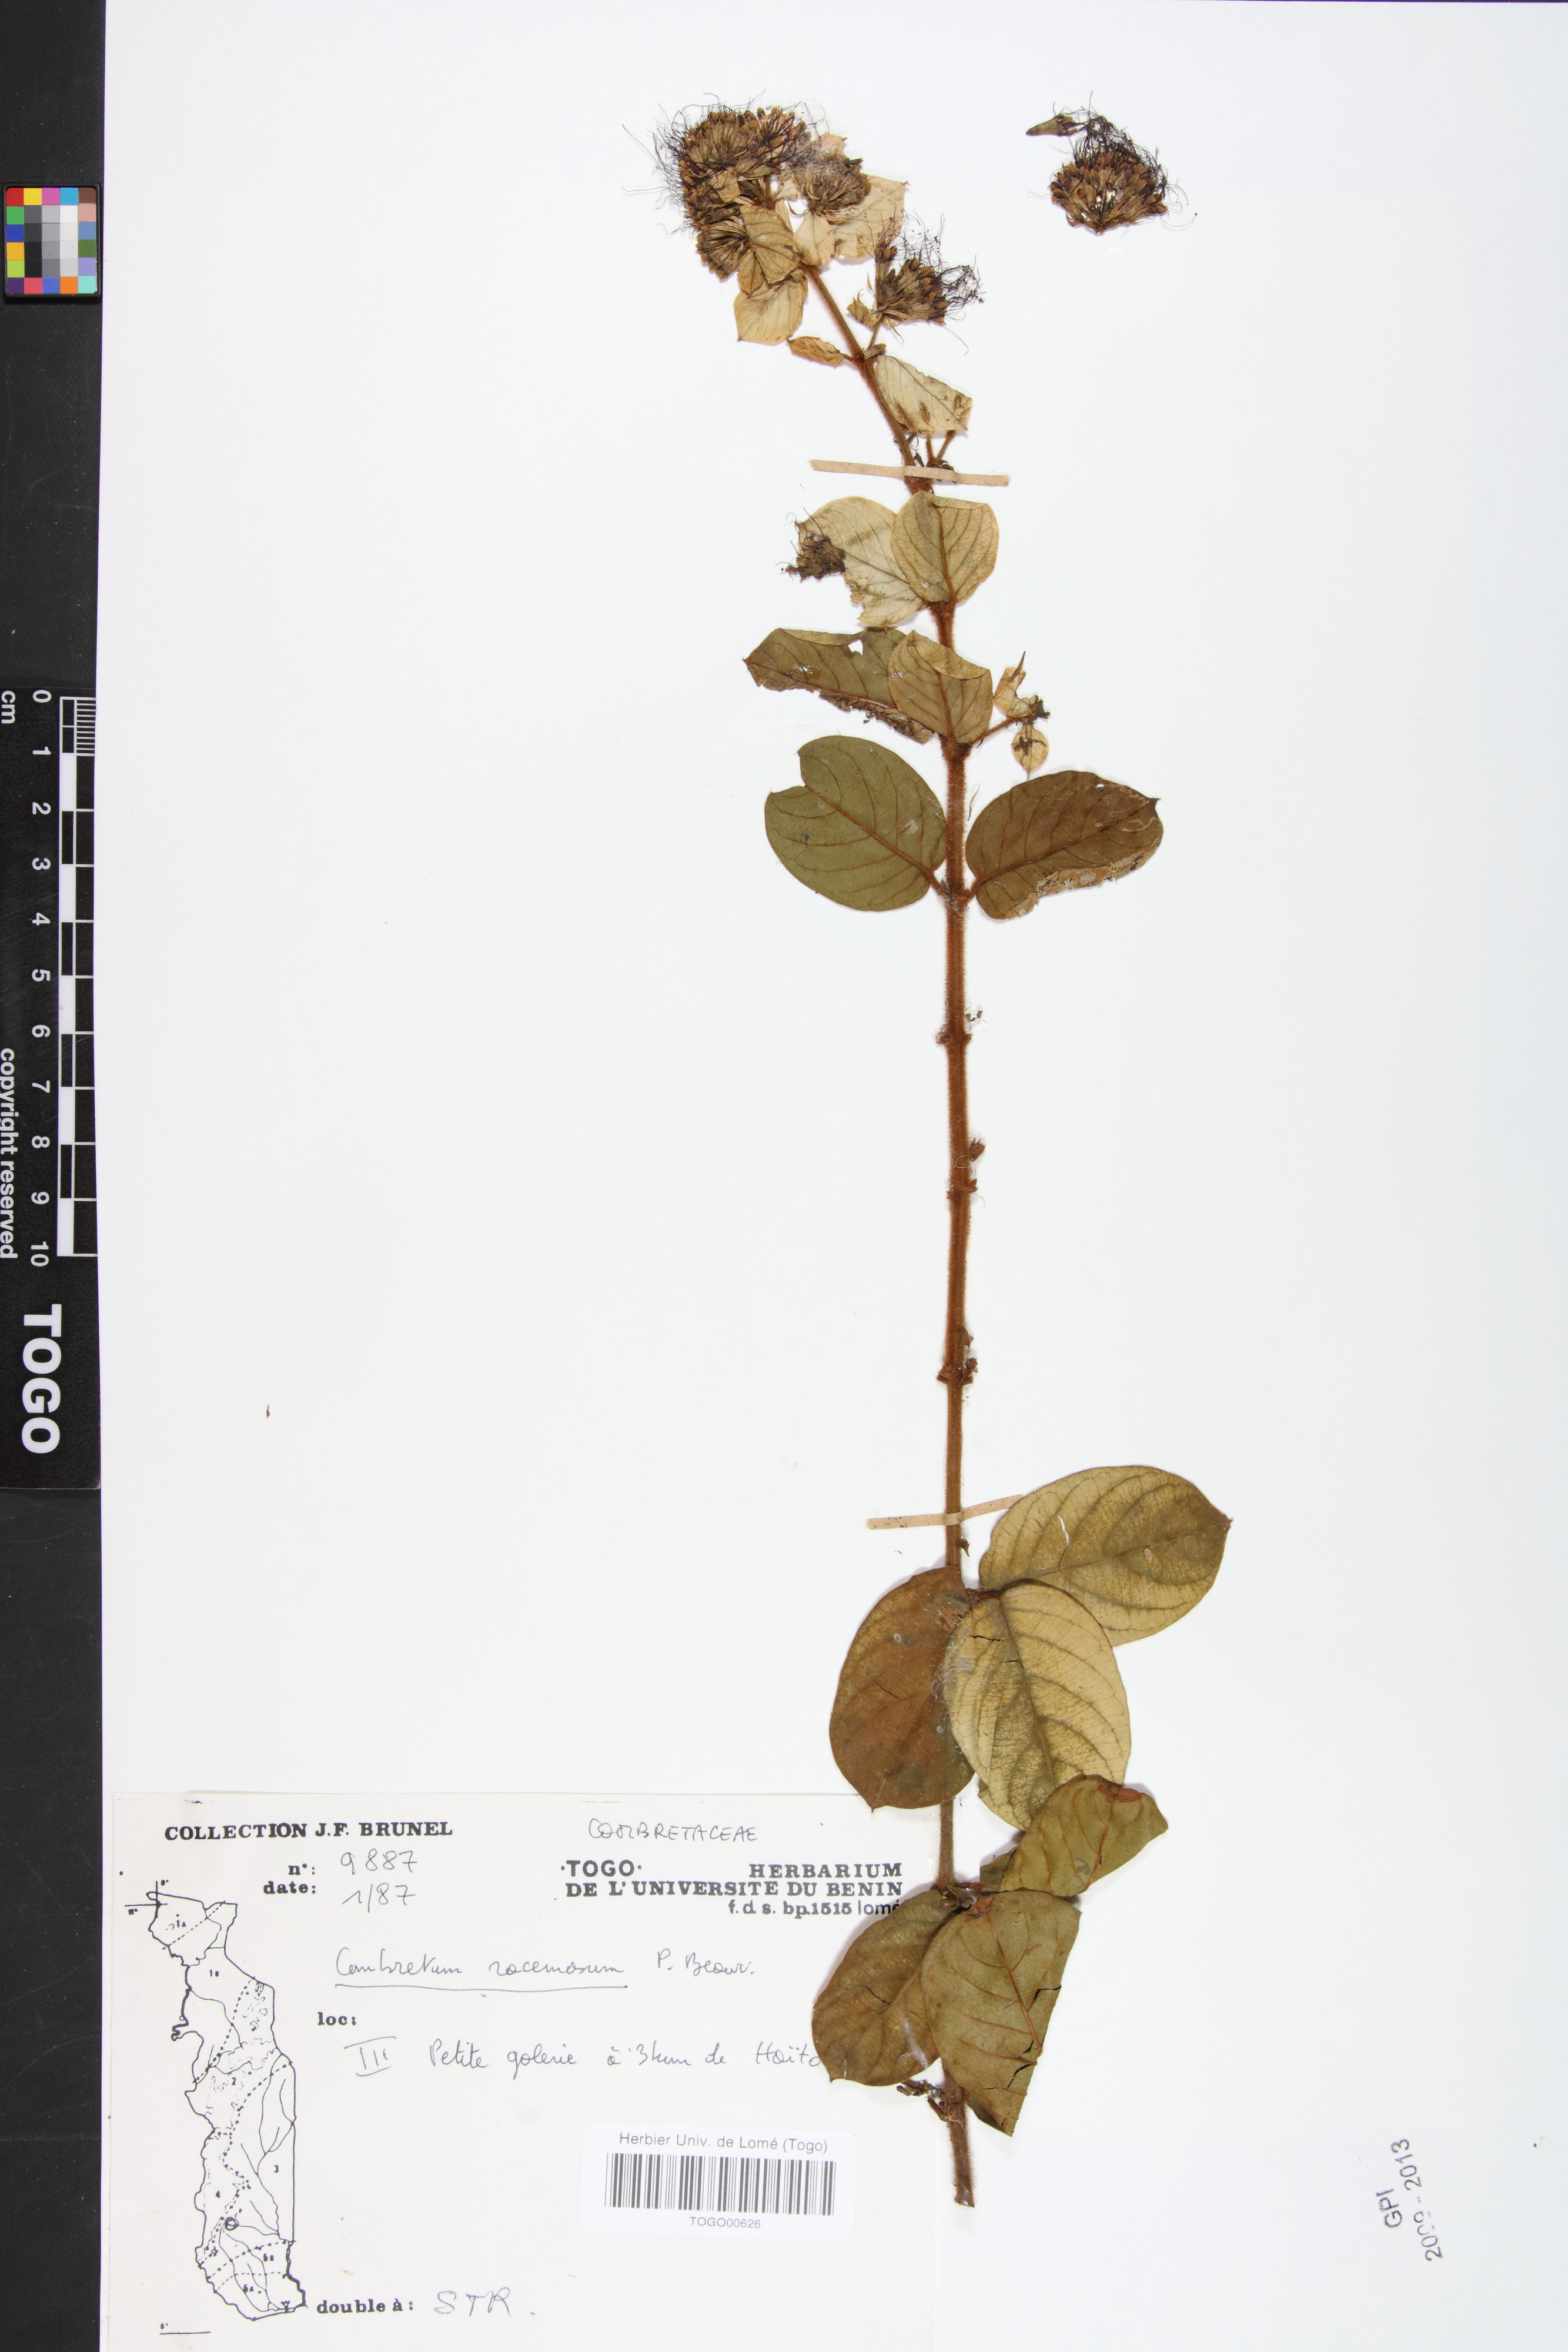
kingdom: Plantae
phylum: Tracheophyta
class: Magnoliopsida
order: Myrtales
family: Combretaceae
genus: Combretum
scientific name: Combretum racemosum
